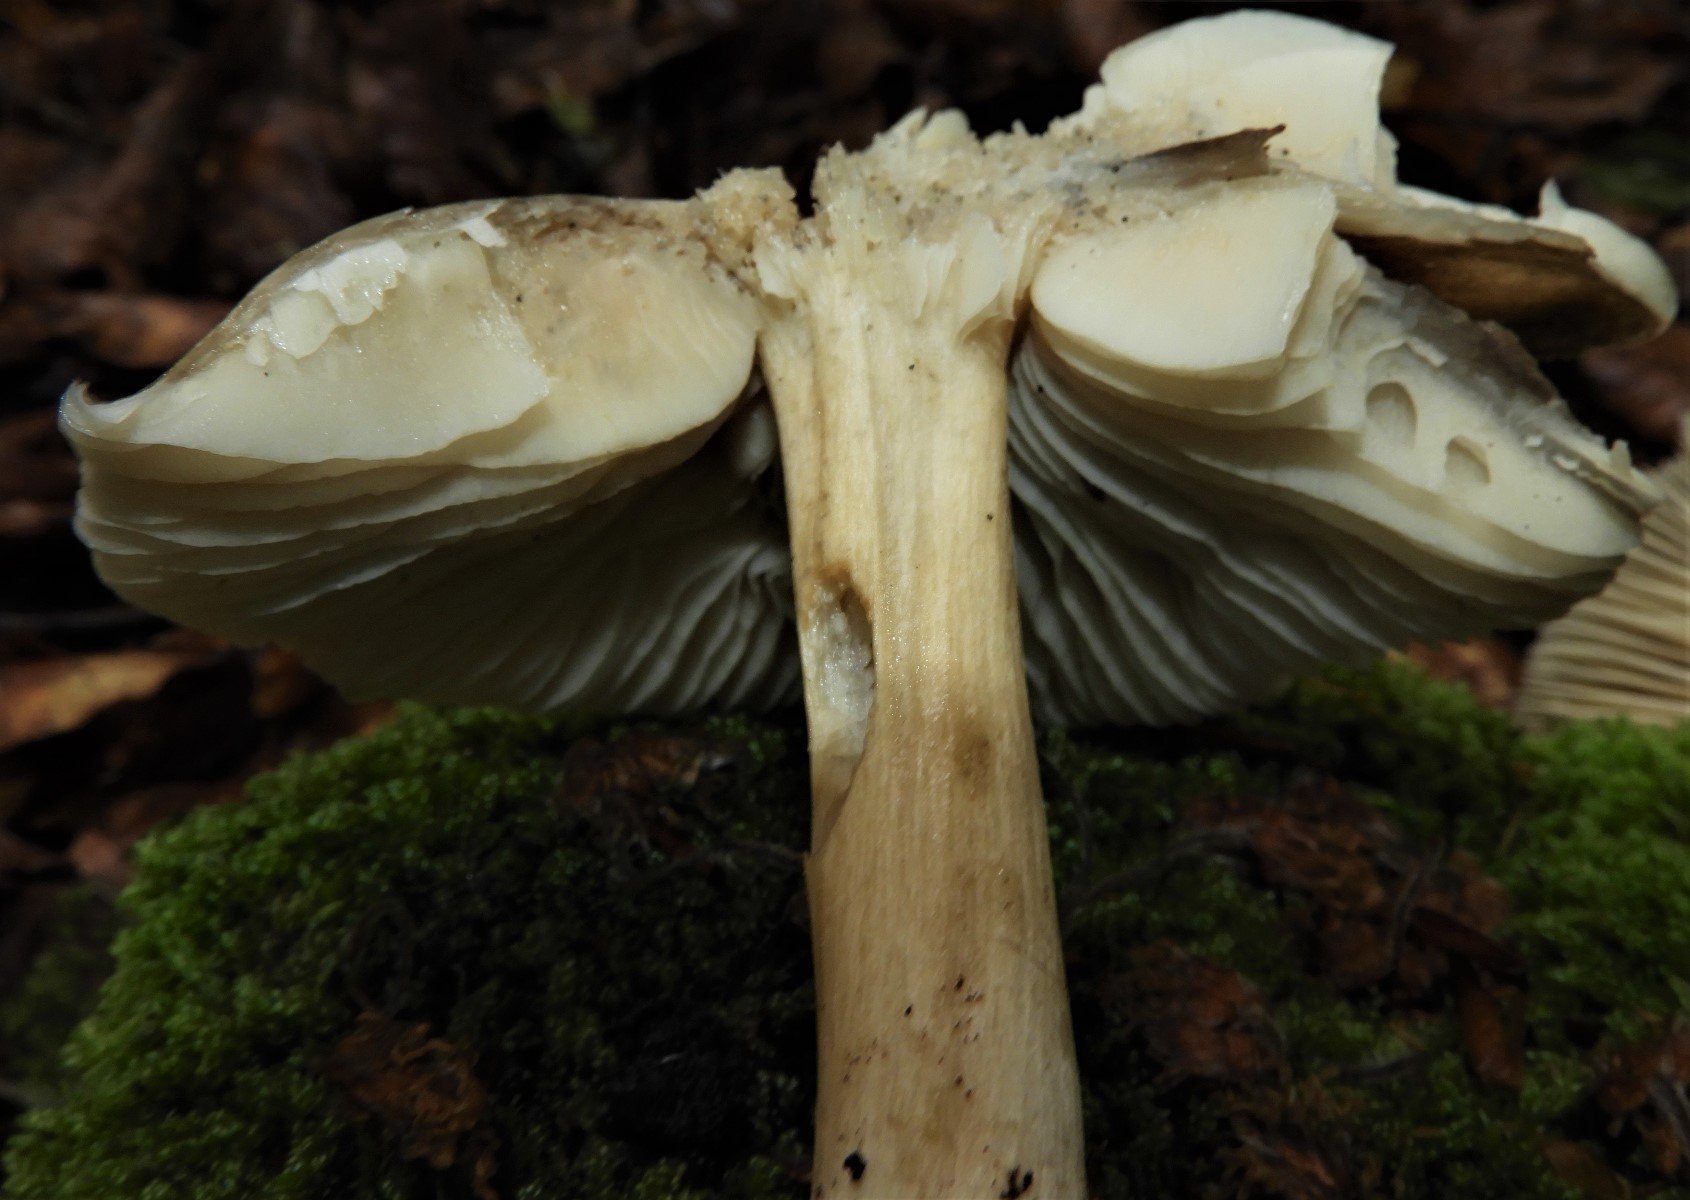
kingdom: Fungi
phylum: Basidiomycota
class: Agaricomycetes
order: Agaricales
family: Tricholomataceae
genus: Megacollybia
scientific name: Megacollybia platyphylla
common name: bredbladet væbnerhat
